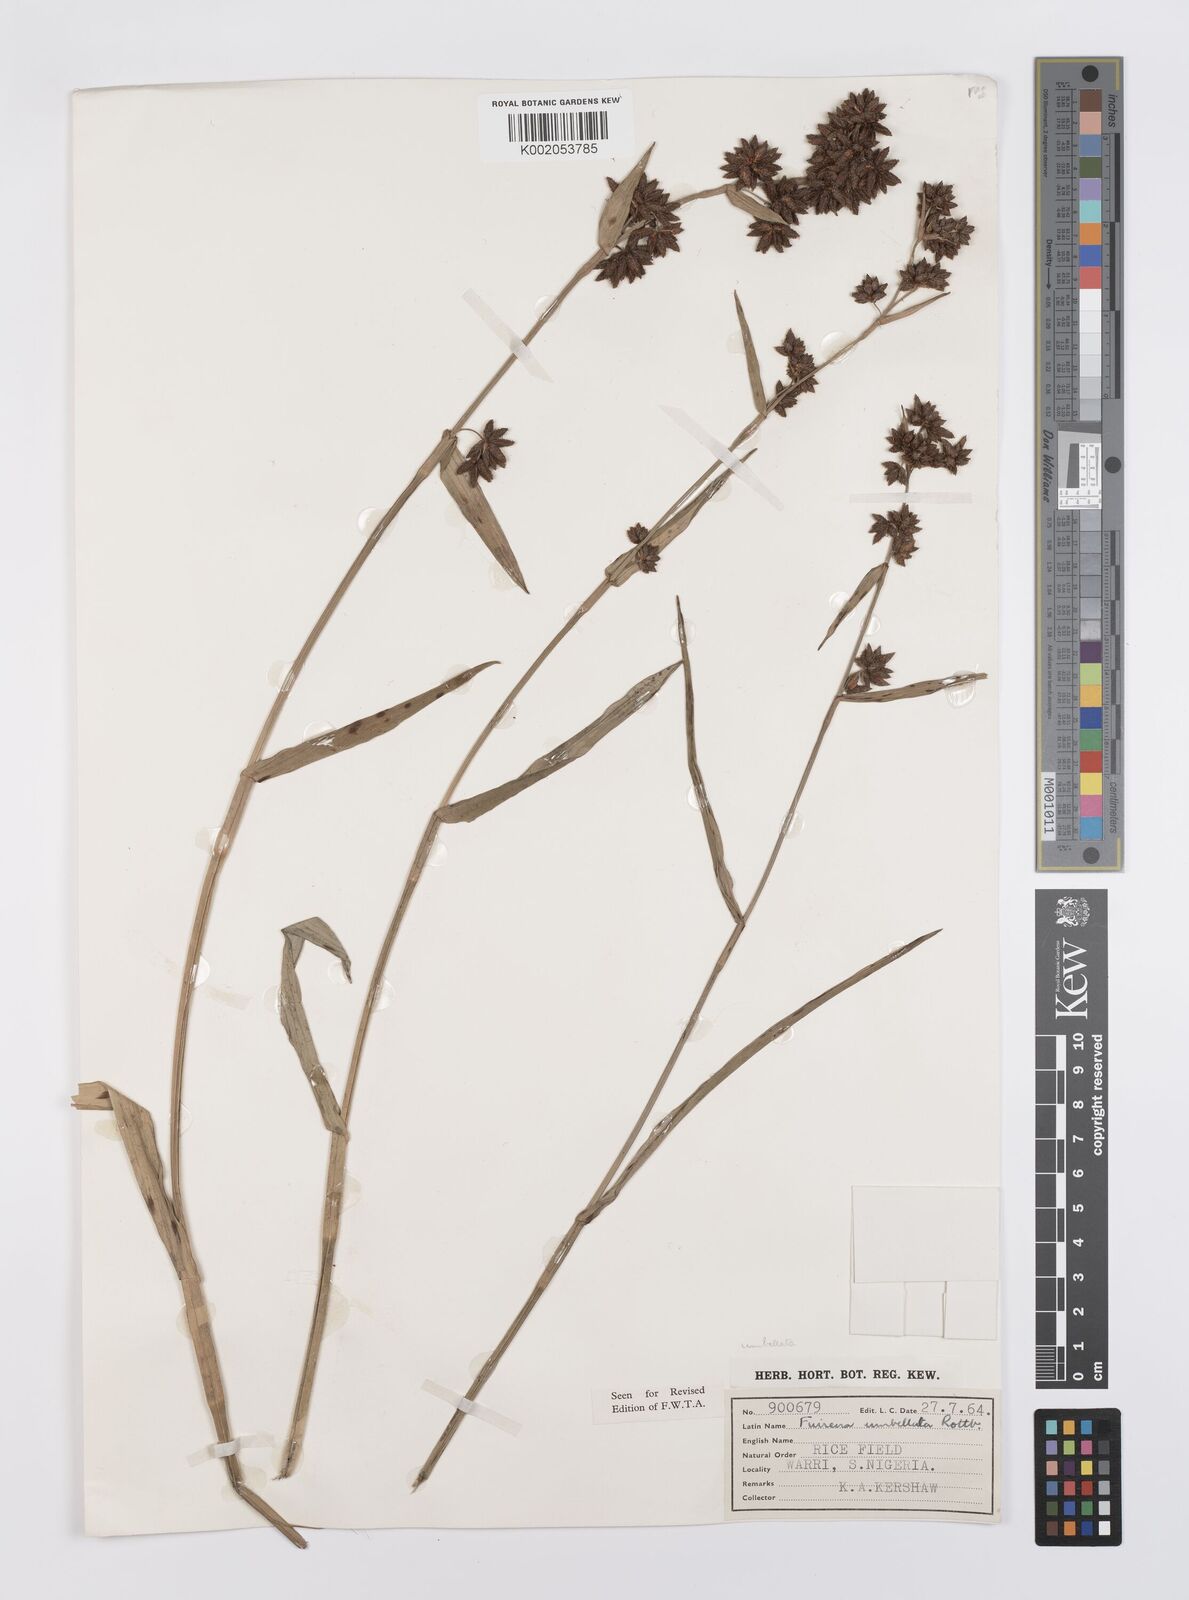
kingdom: Plantae
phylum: Tracheophyta
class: Liliopsida
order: Poales
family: Cyperaceae
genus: Fuirena
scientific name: Fuirena umbellata
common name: Yefen
